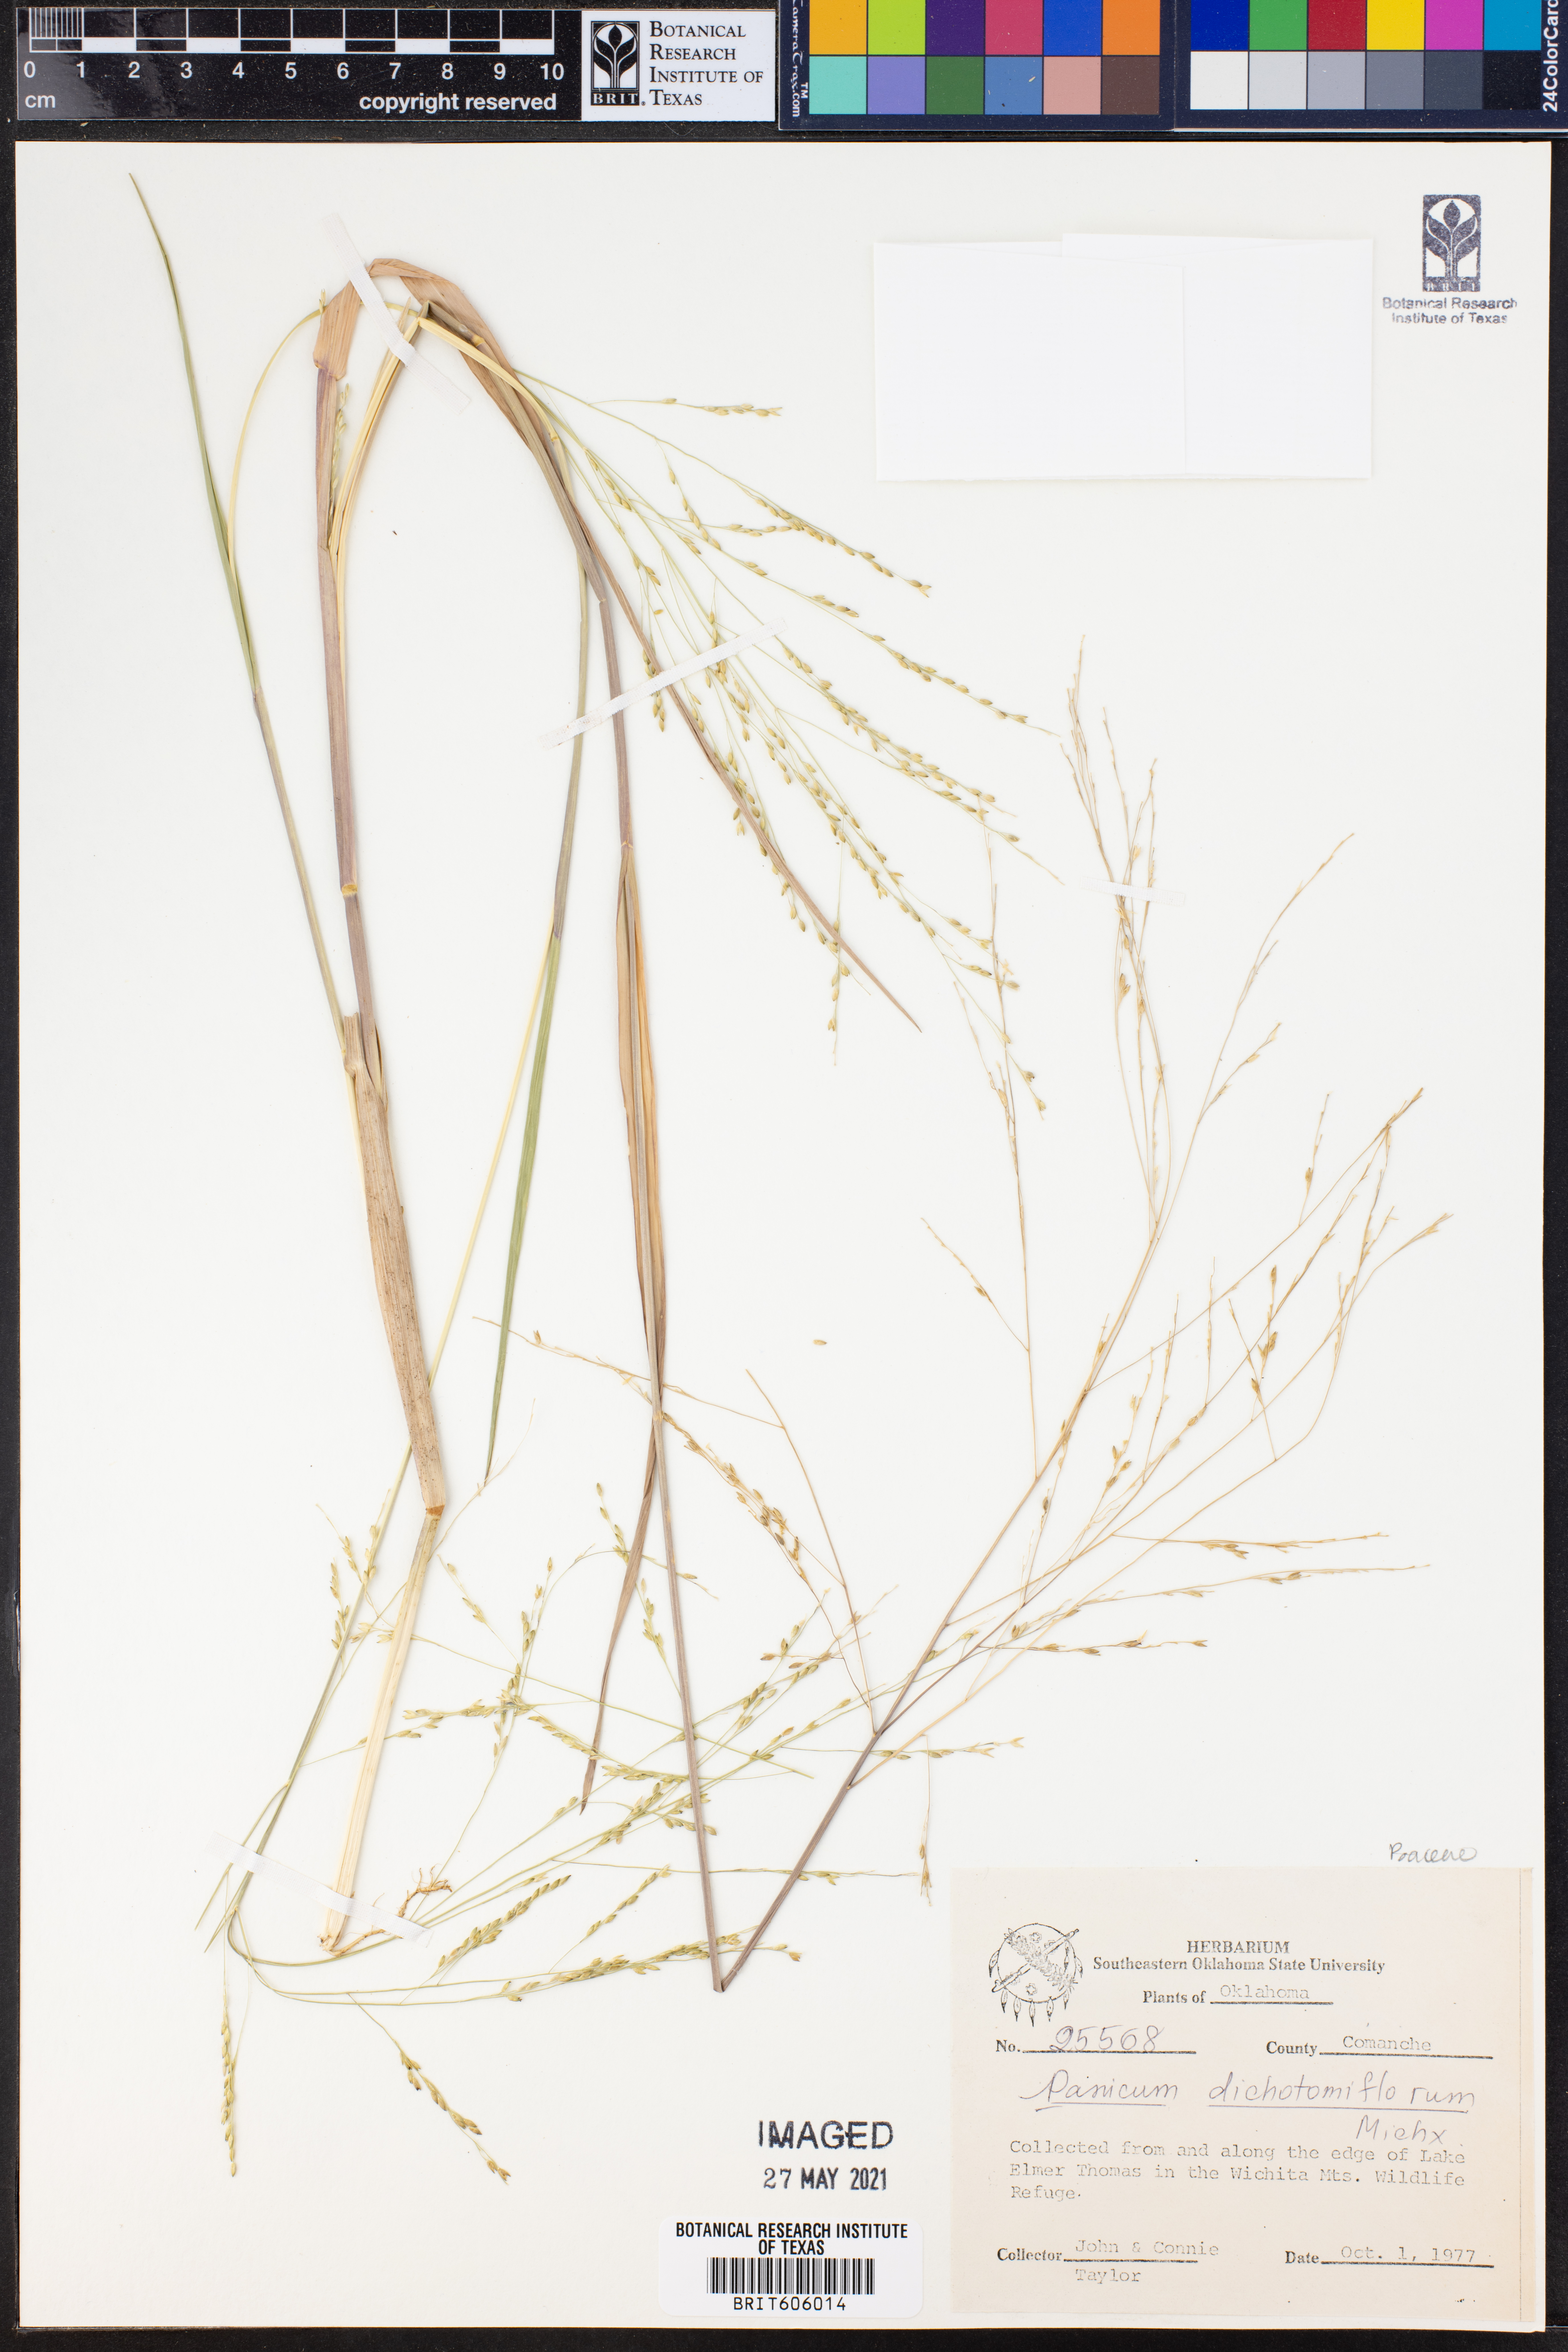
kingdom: Plantae
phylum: Tracheophyta
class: Liliopsida
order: Poales
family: Poaceae
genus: Panicum
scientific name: Panicum dichotomiflorum
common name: Autumn millet
